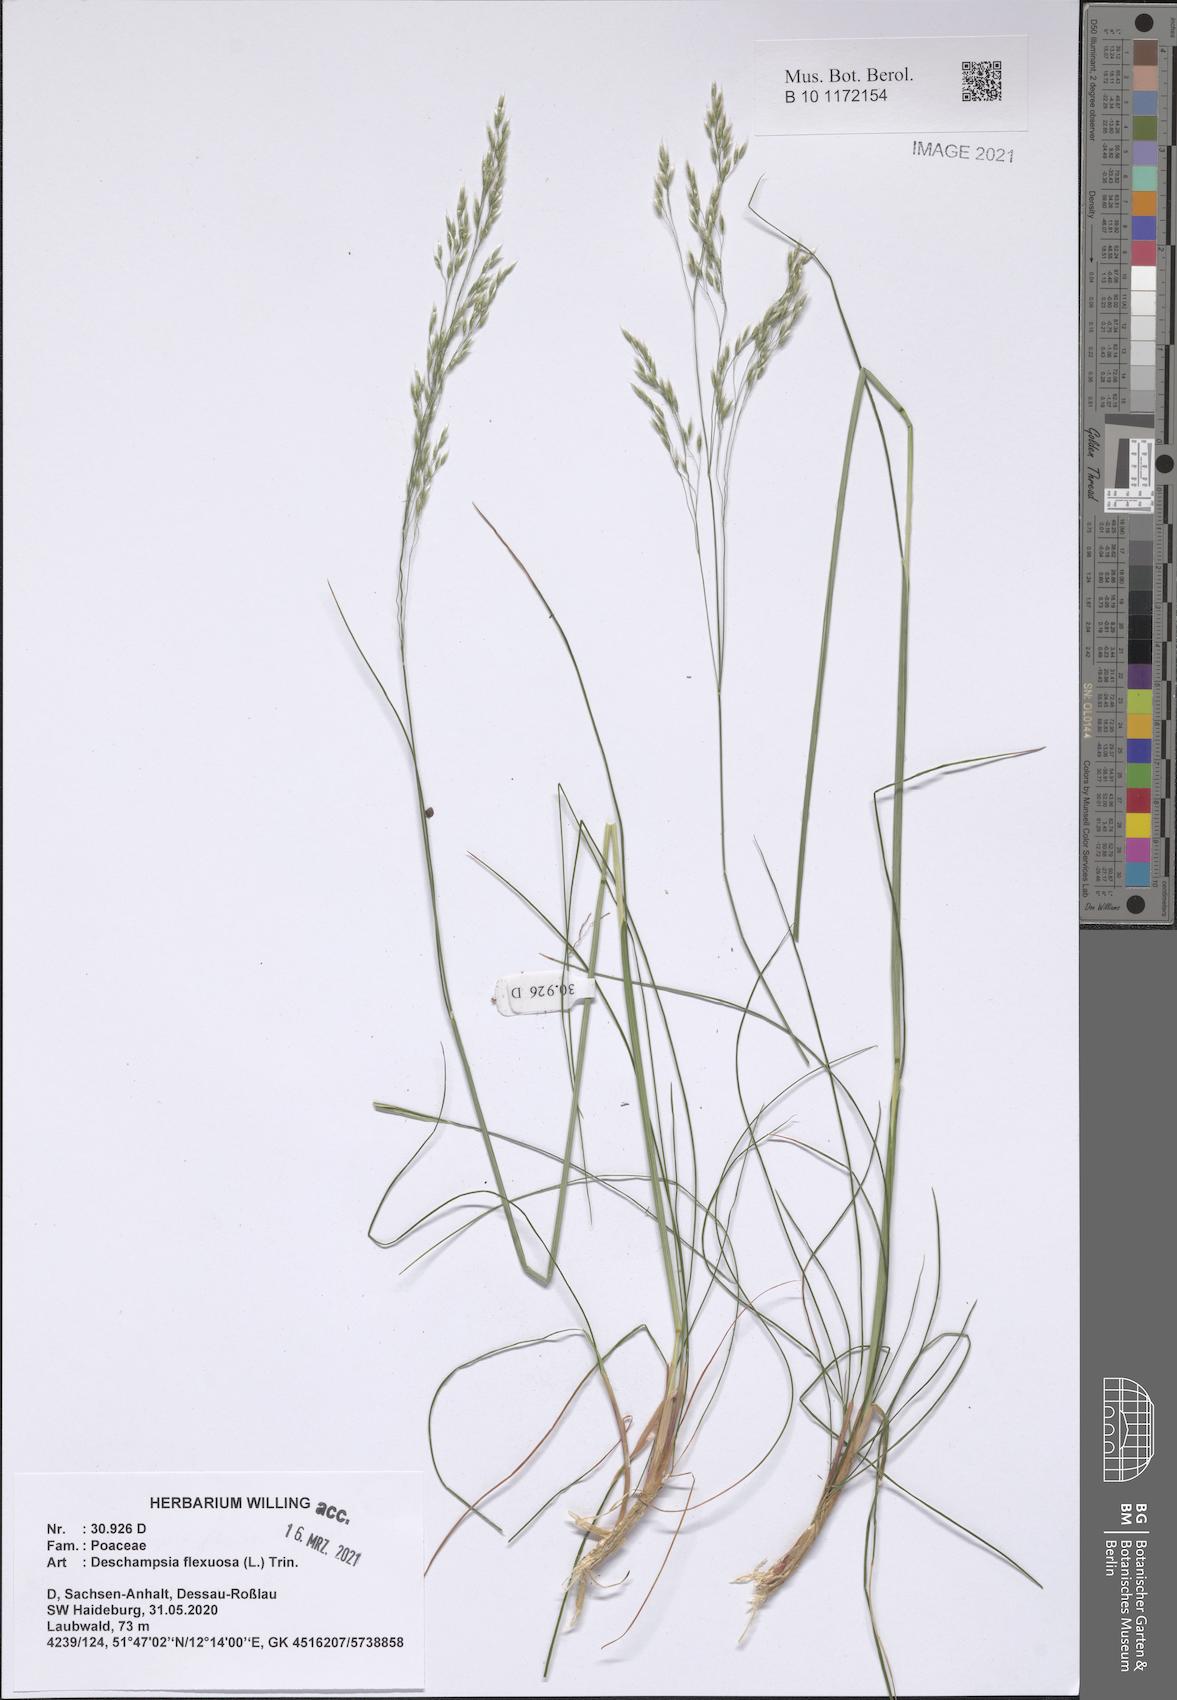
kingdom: Plantae
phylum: Tracheophyta
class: Liliopsida
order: Poales
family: Poaceae
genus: Avenella
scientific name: Avenella flexuosa
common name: Wavy hairgrass
